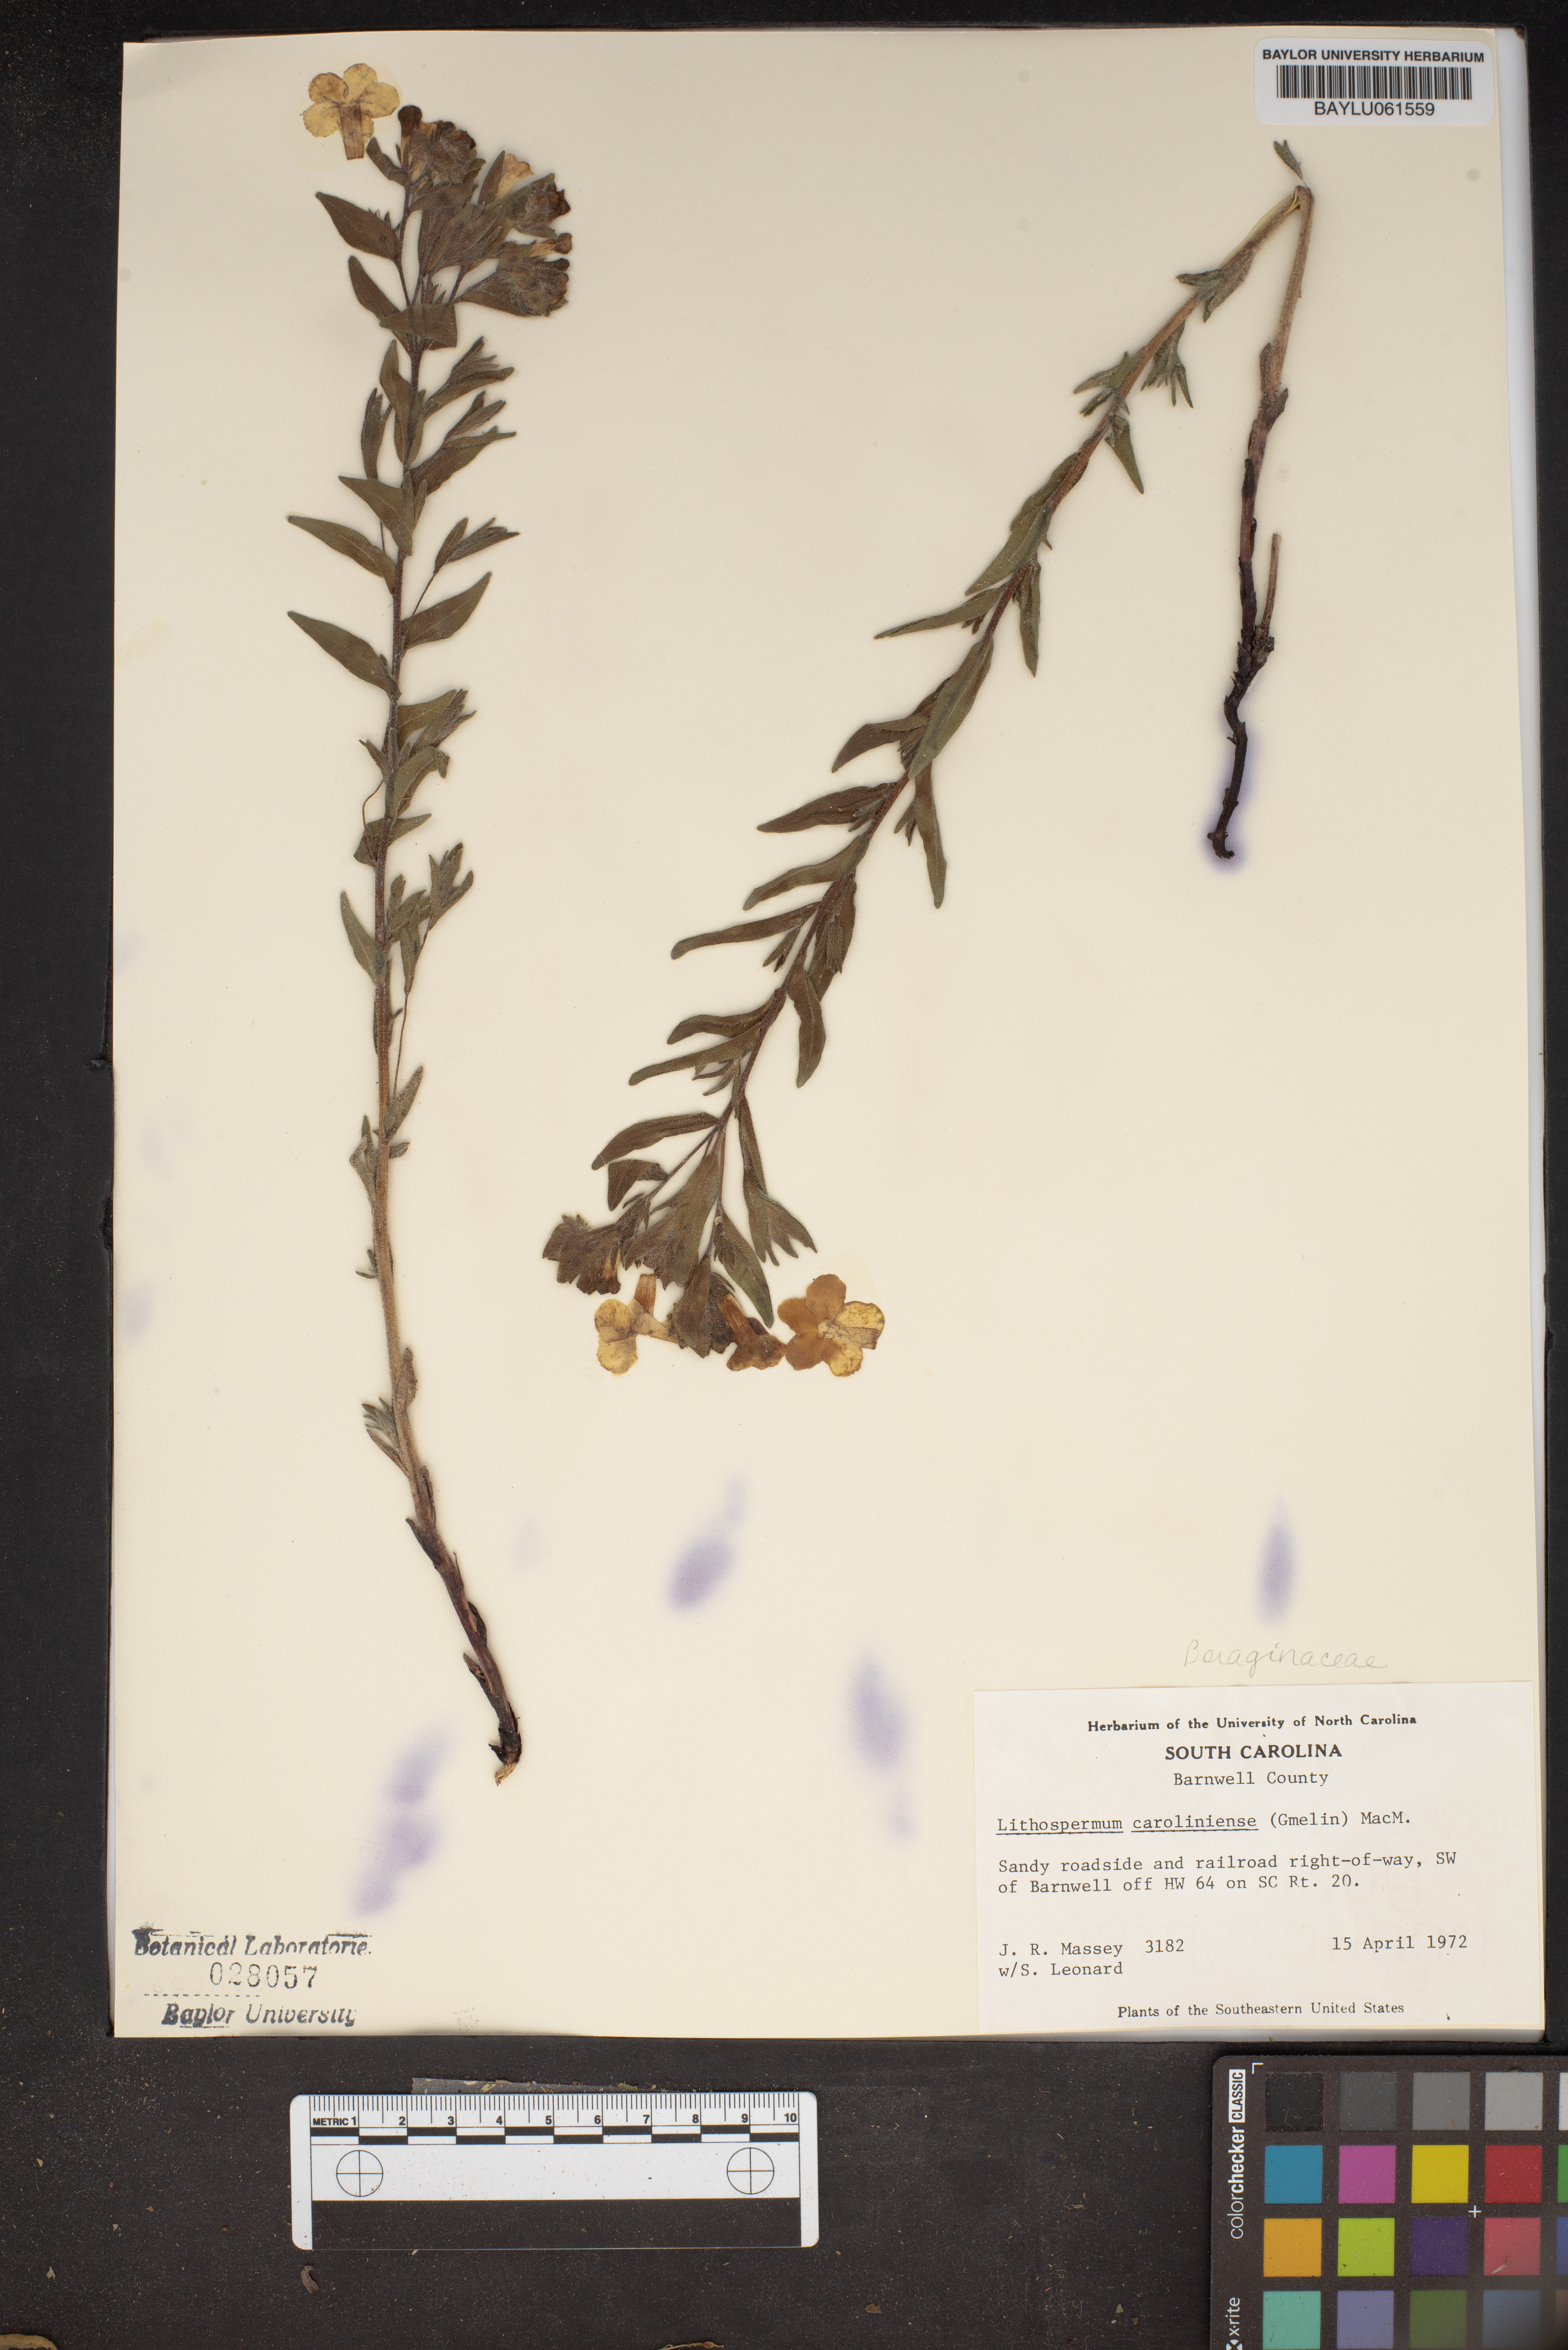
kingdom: Plantae
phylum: Tracheophyta
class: Magnoliopsida
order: Boraginales
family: Boraginaceae
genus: Lithospermum
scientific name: Lithospermum caroliniense
